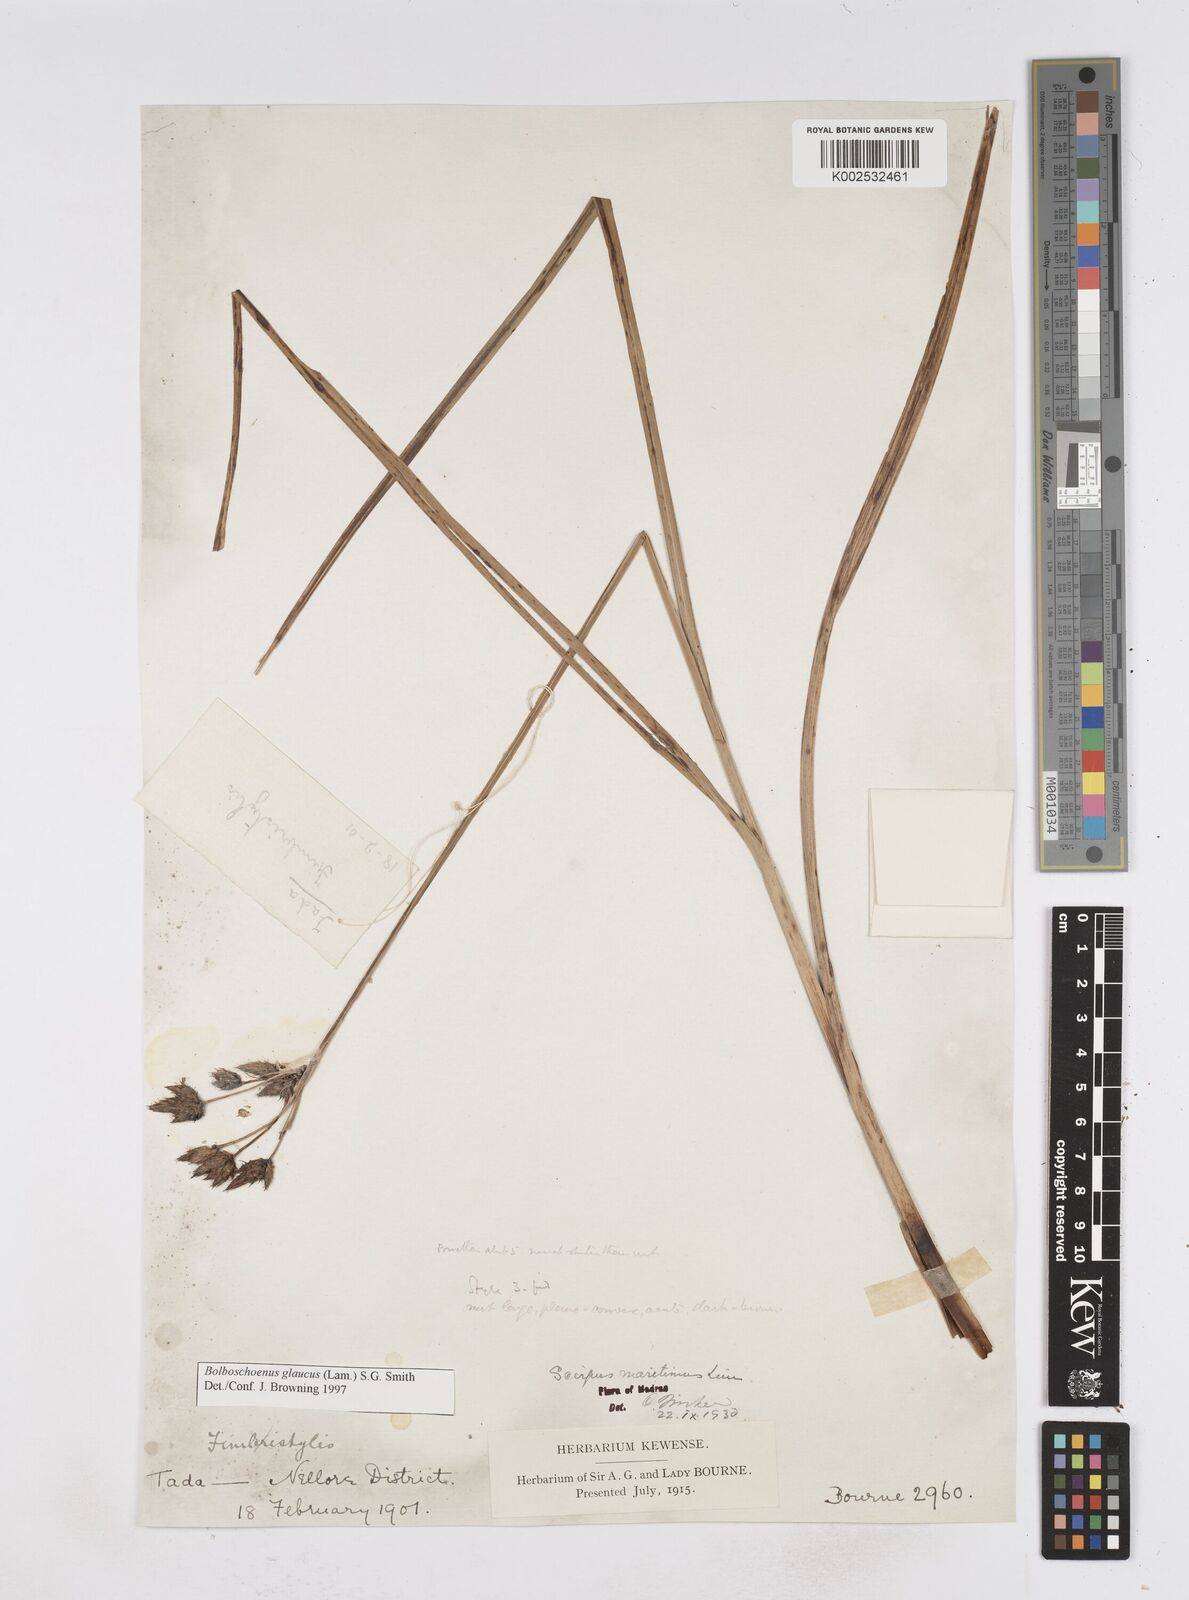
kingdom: Plantae
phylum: Tracheophyta
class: Liliopsida
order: Poales
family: Cyperaceae
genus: Bolboschoenus
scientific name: Bolboschoenus maritimus
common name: Sea club-rush
